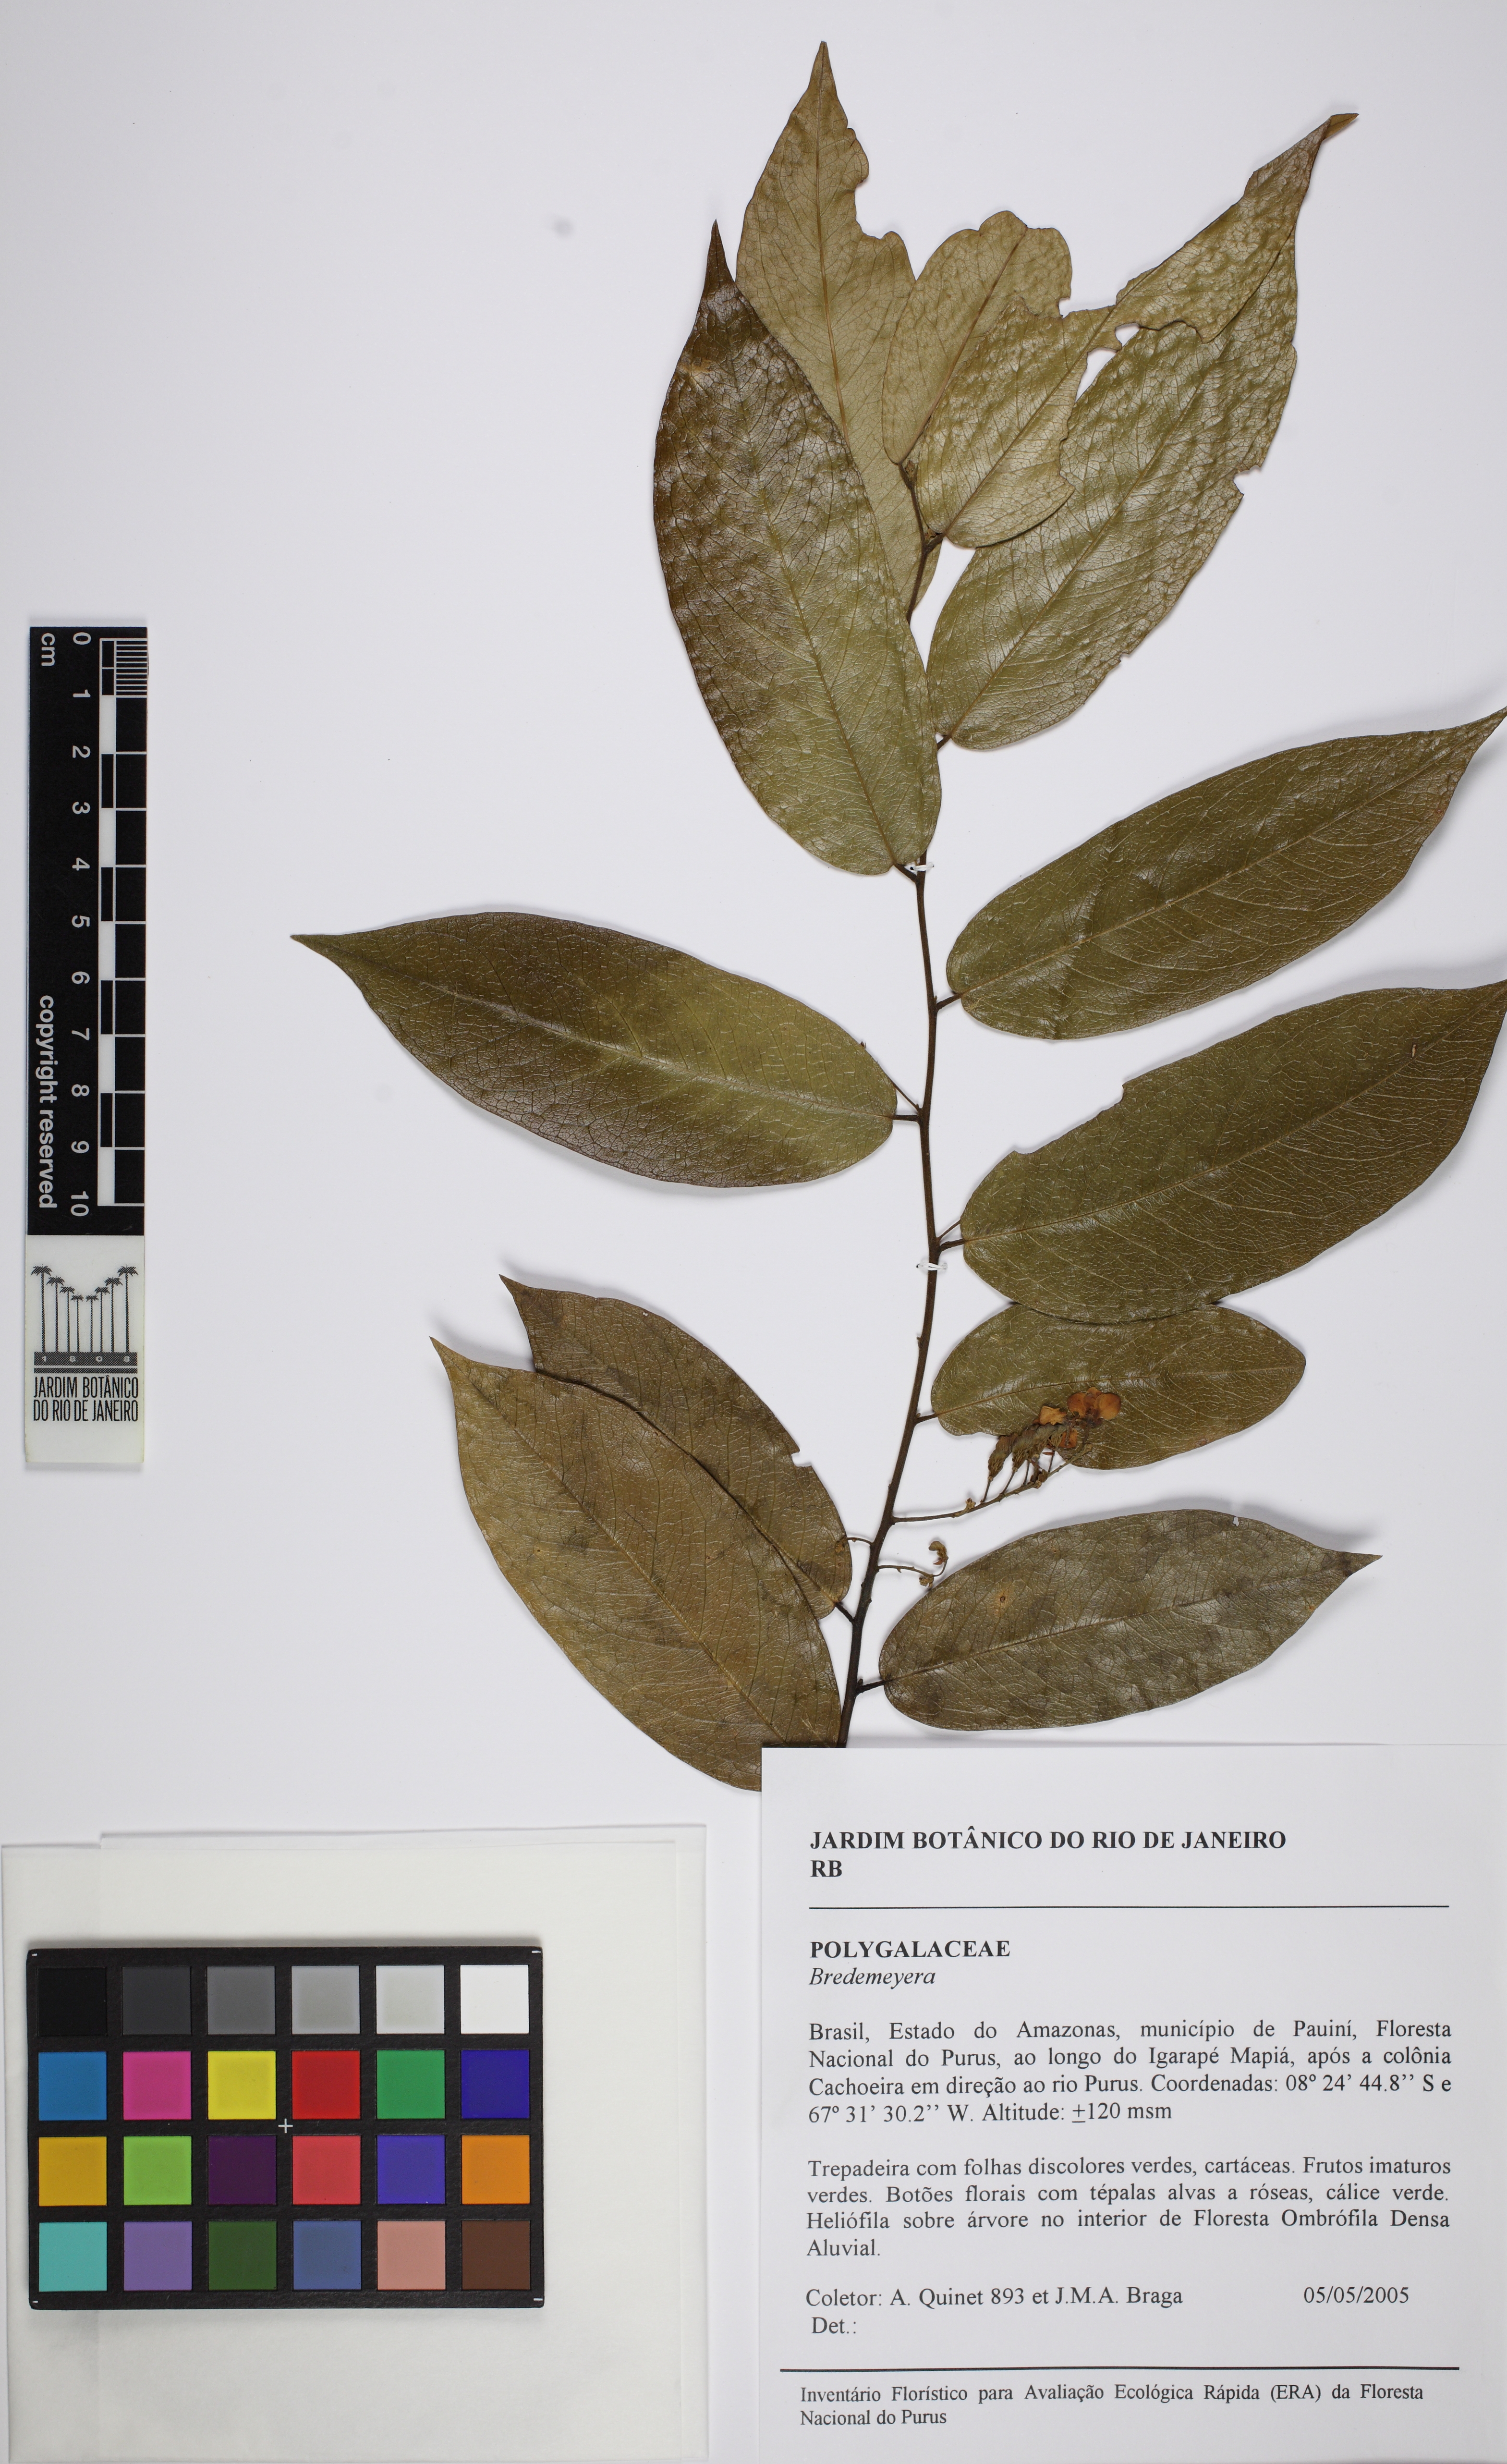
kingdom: Plantae
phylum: Tracheophyta
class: Magnoliopsida
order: Fabales
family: Polygalaceae
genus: Bredemeyera
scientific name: Bredemeyera
